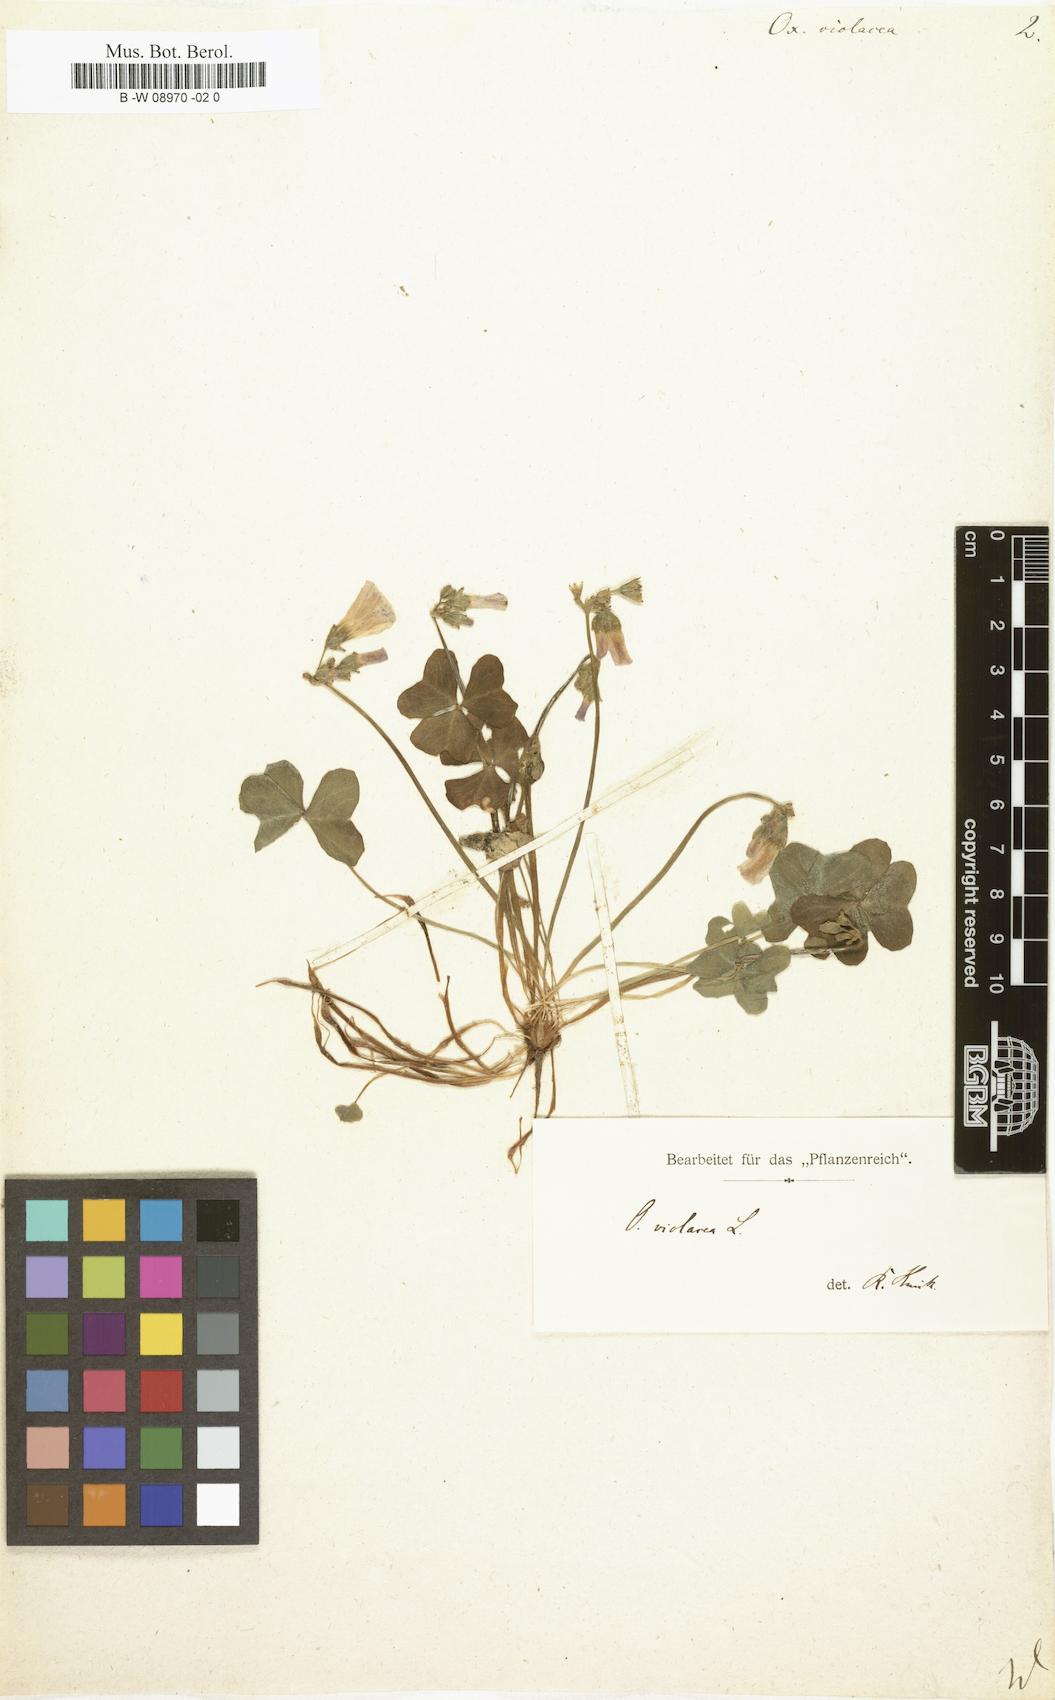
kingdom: Plantae
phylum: Tracheophyta
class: Magnoliopsida
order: Oxalidales
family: Oxalidaceae
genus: Oxalis
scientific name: Oxalis violacea
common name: Violet wood-sorrel
